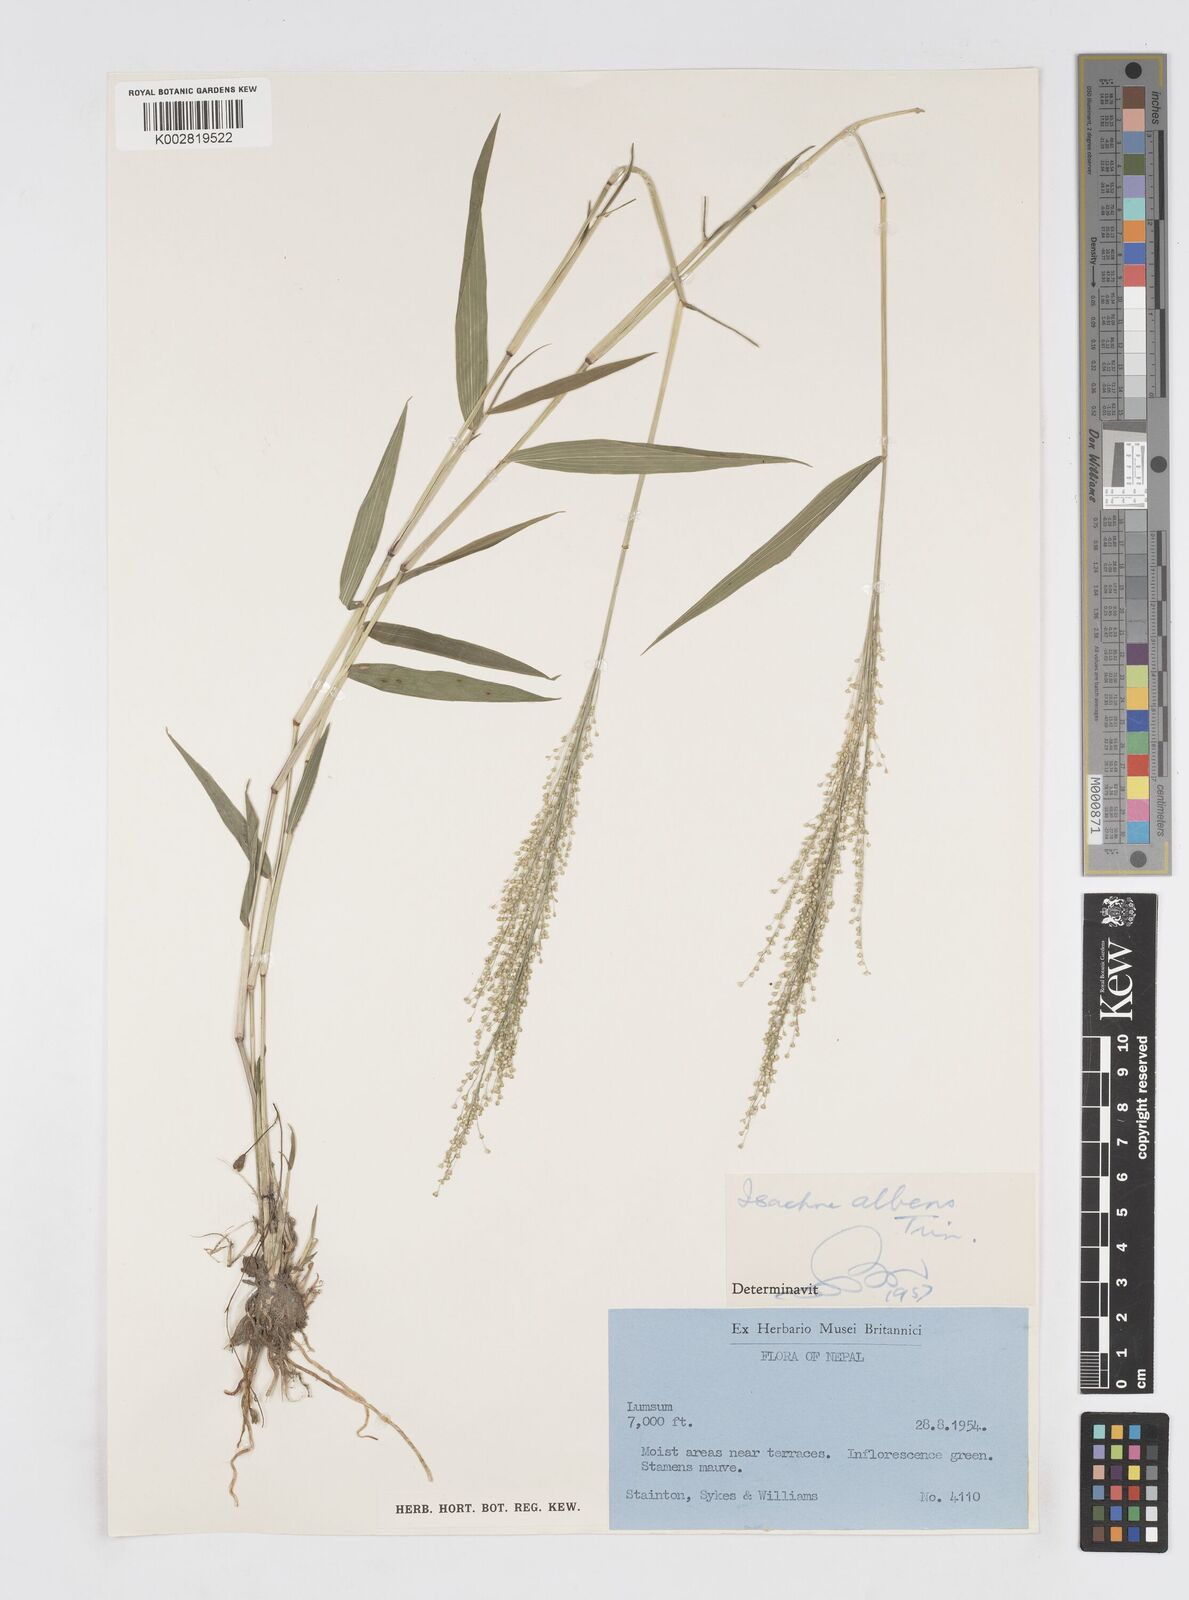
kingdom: Plantae
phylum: Tracheophyta
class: Liliopsida
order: Poales
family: Poaceae
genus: Isachne
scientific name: Isachne albens
